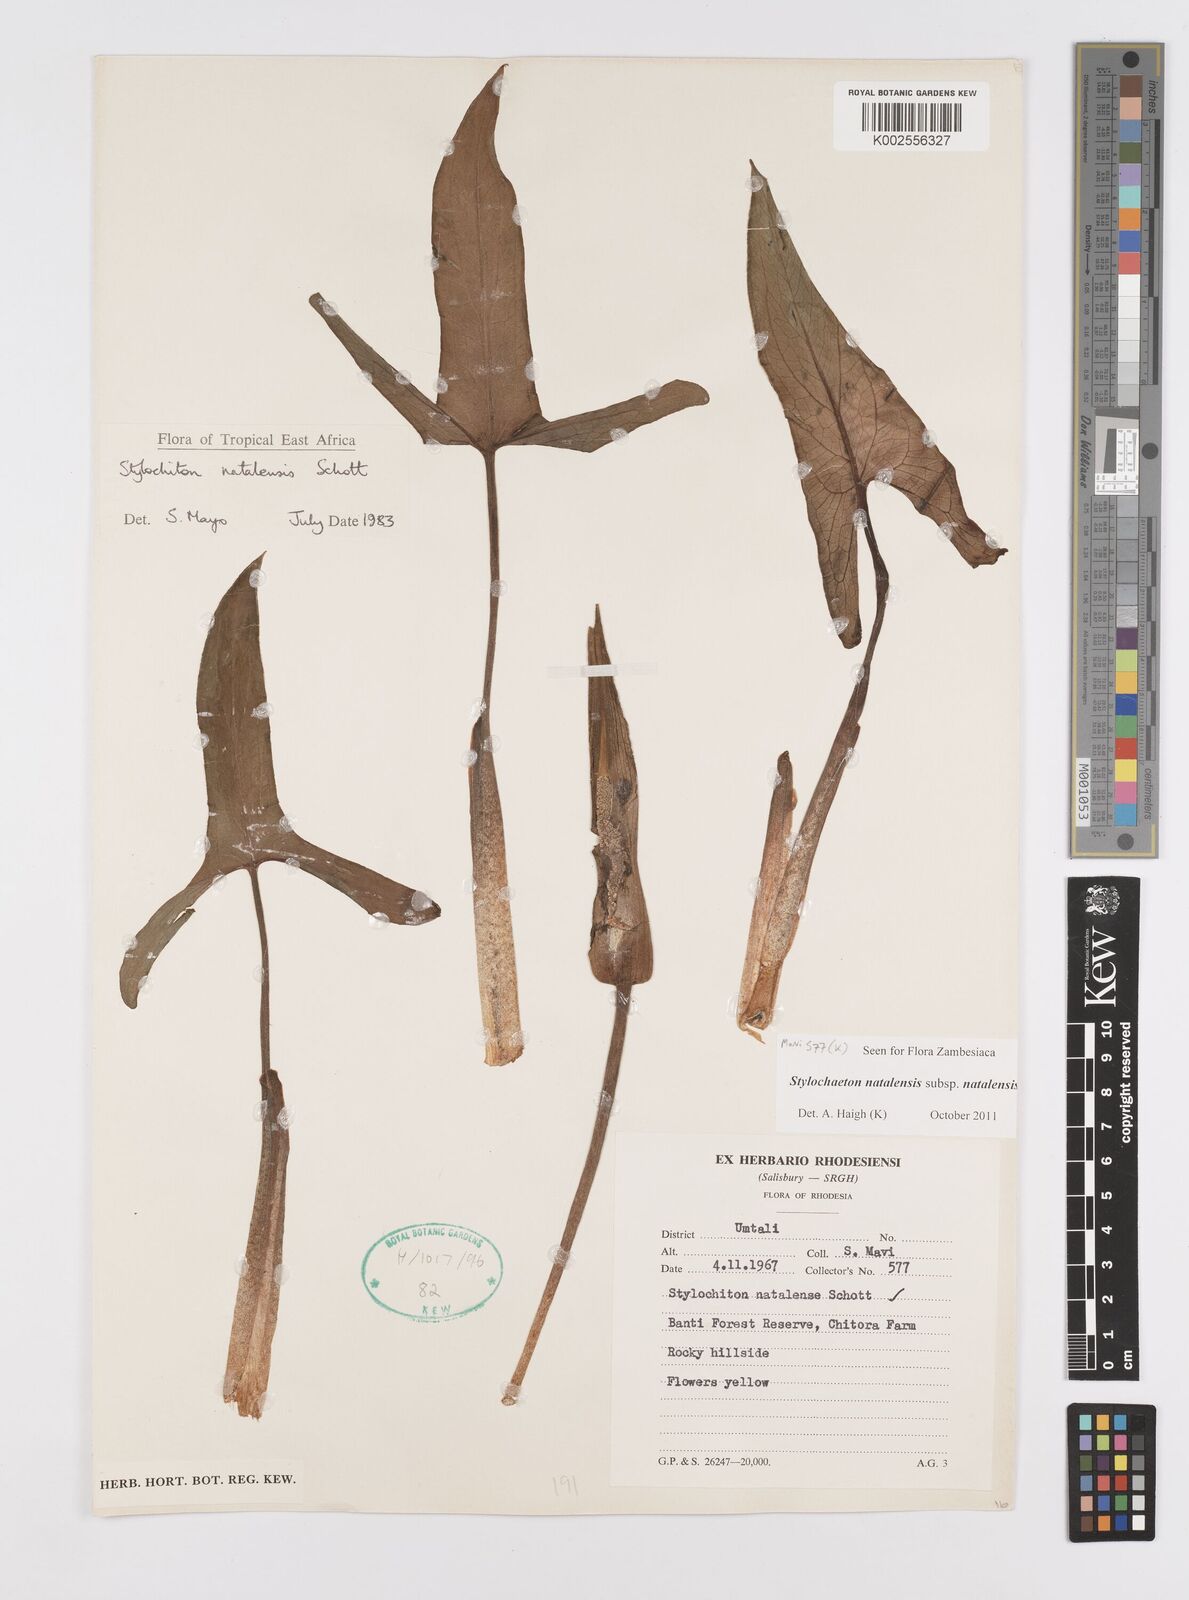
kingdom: Plantae
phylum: Tracheophyta
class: Liliopsida
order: Alismatales
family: Araceae
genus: Stylochaeton
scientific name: Stylochaeton natalense
